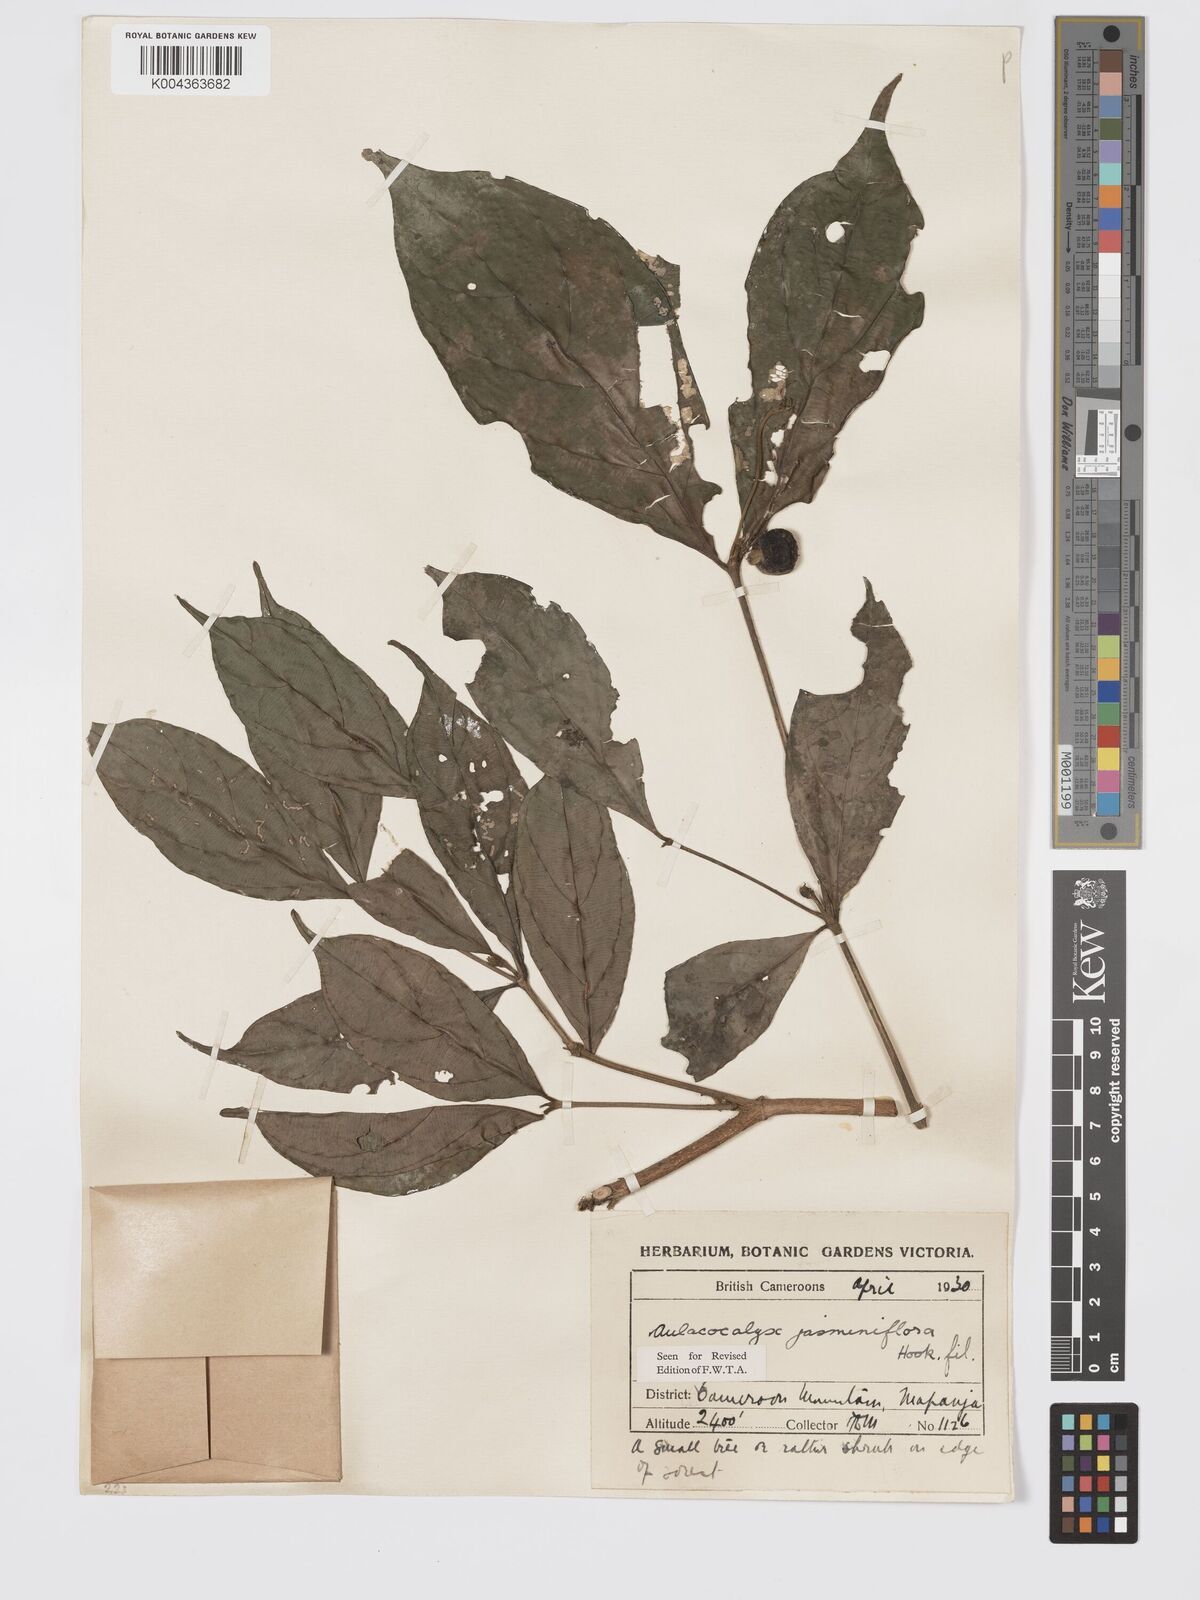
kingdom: Plantae
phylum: Tracheophyta
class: Magnoliopsida
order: Gentianales
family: Rubiaceae
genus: Aulacocalyx
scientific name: Aulacocalyx jasminiflora
